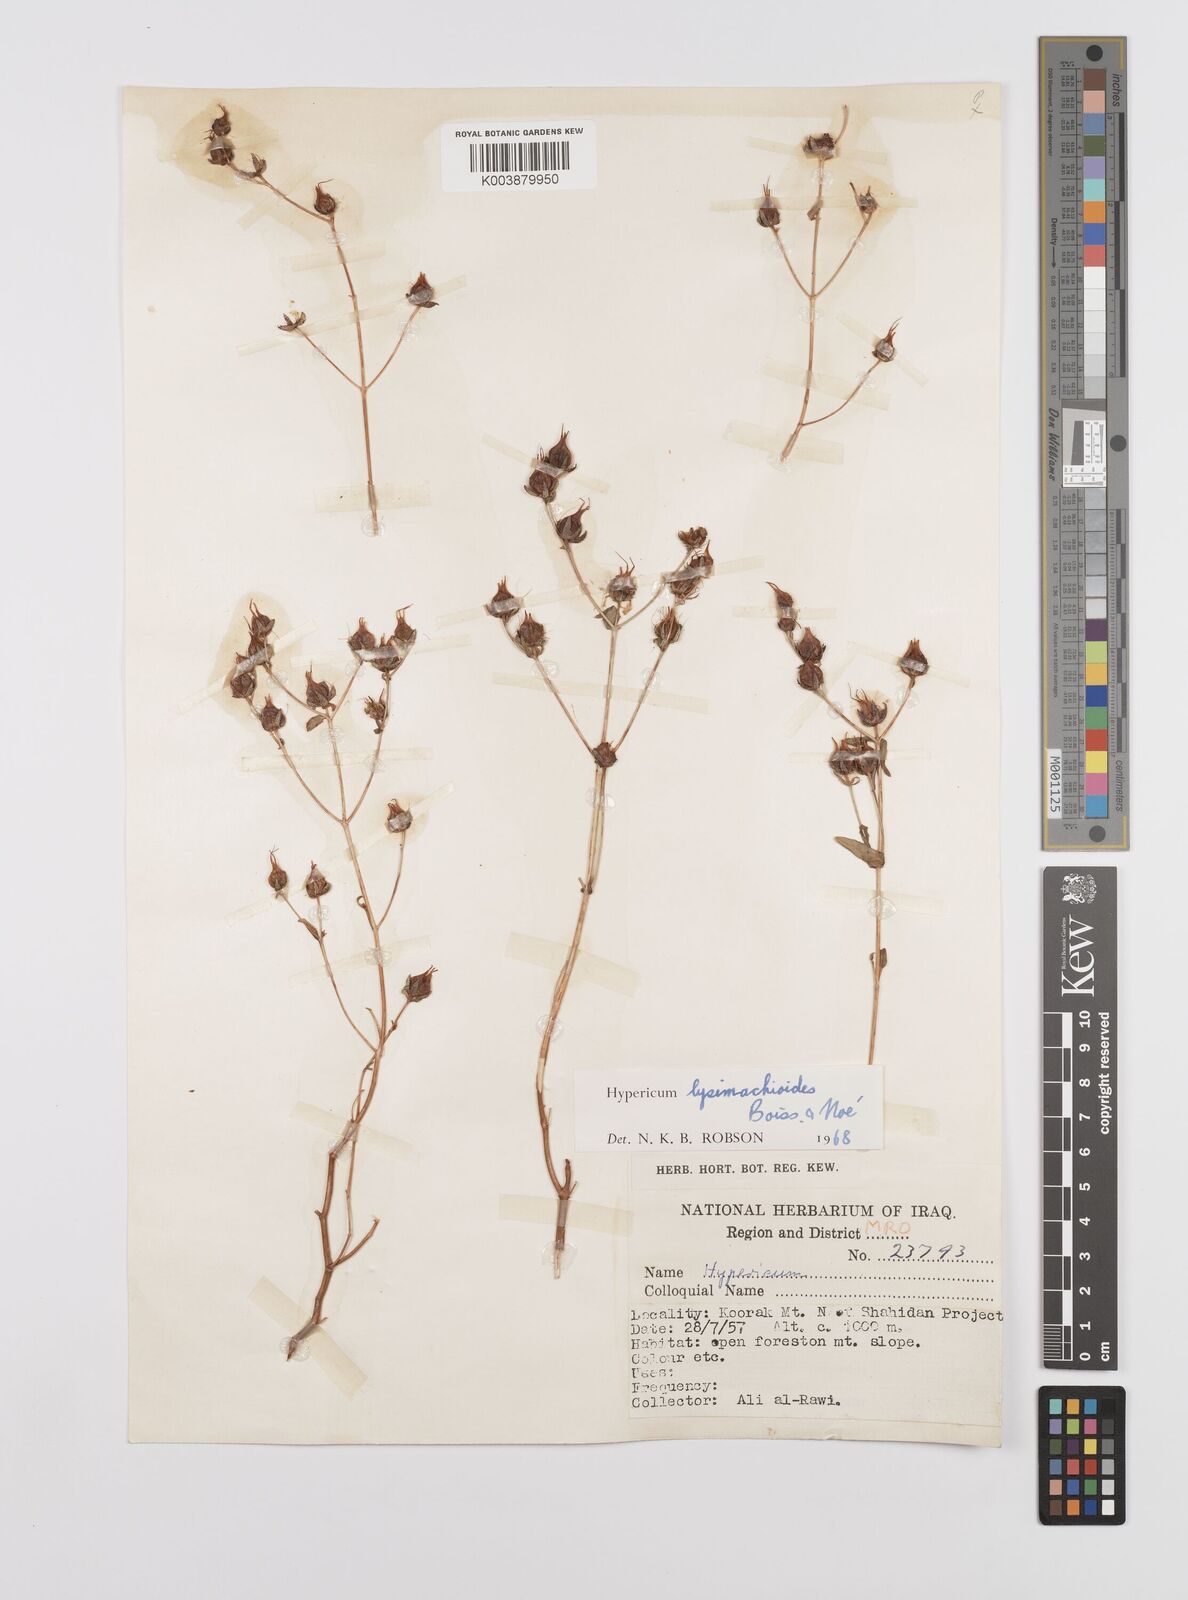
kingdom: Plantae
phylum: Tracheophyta
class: Magnoliopsida
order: Malpighiales
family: Hypericaceae
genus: Hypericum
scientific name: Hypericum
